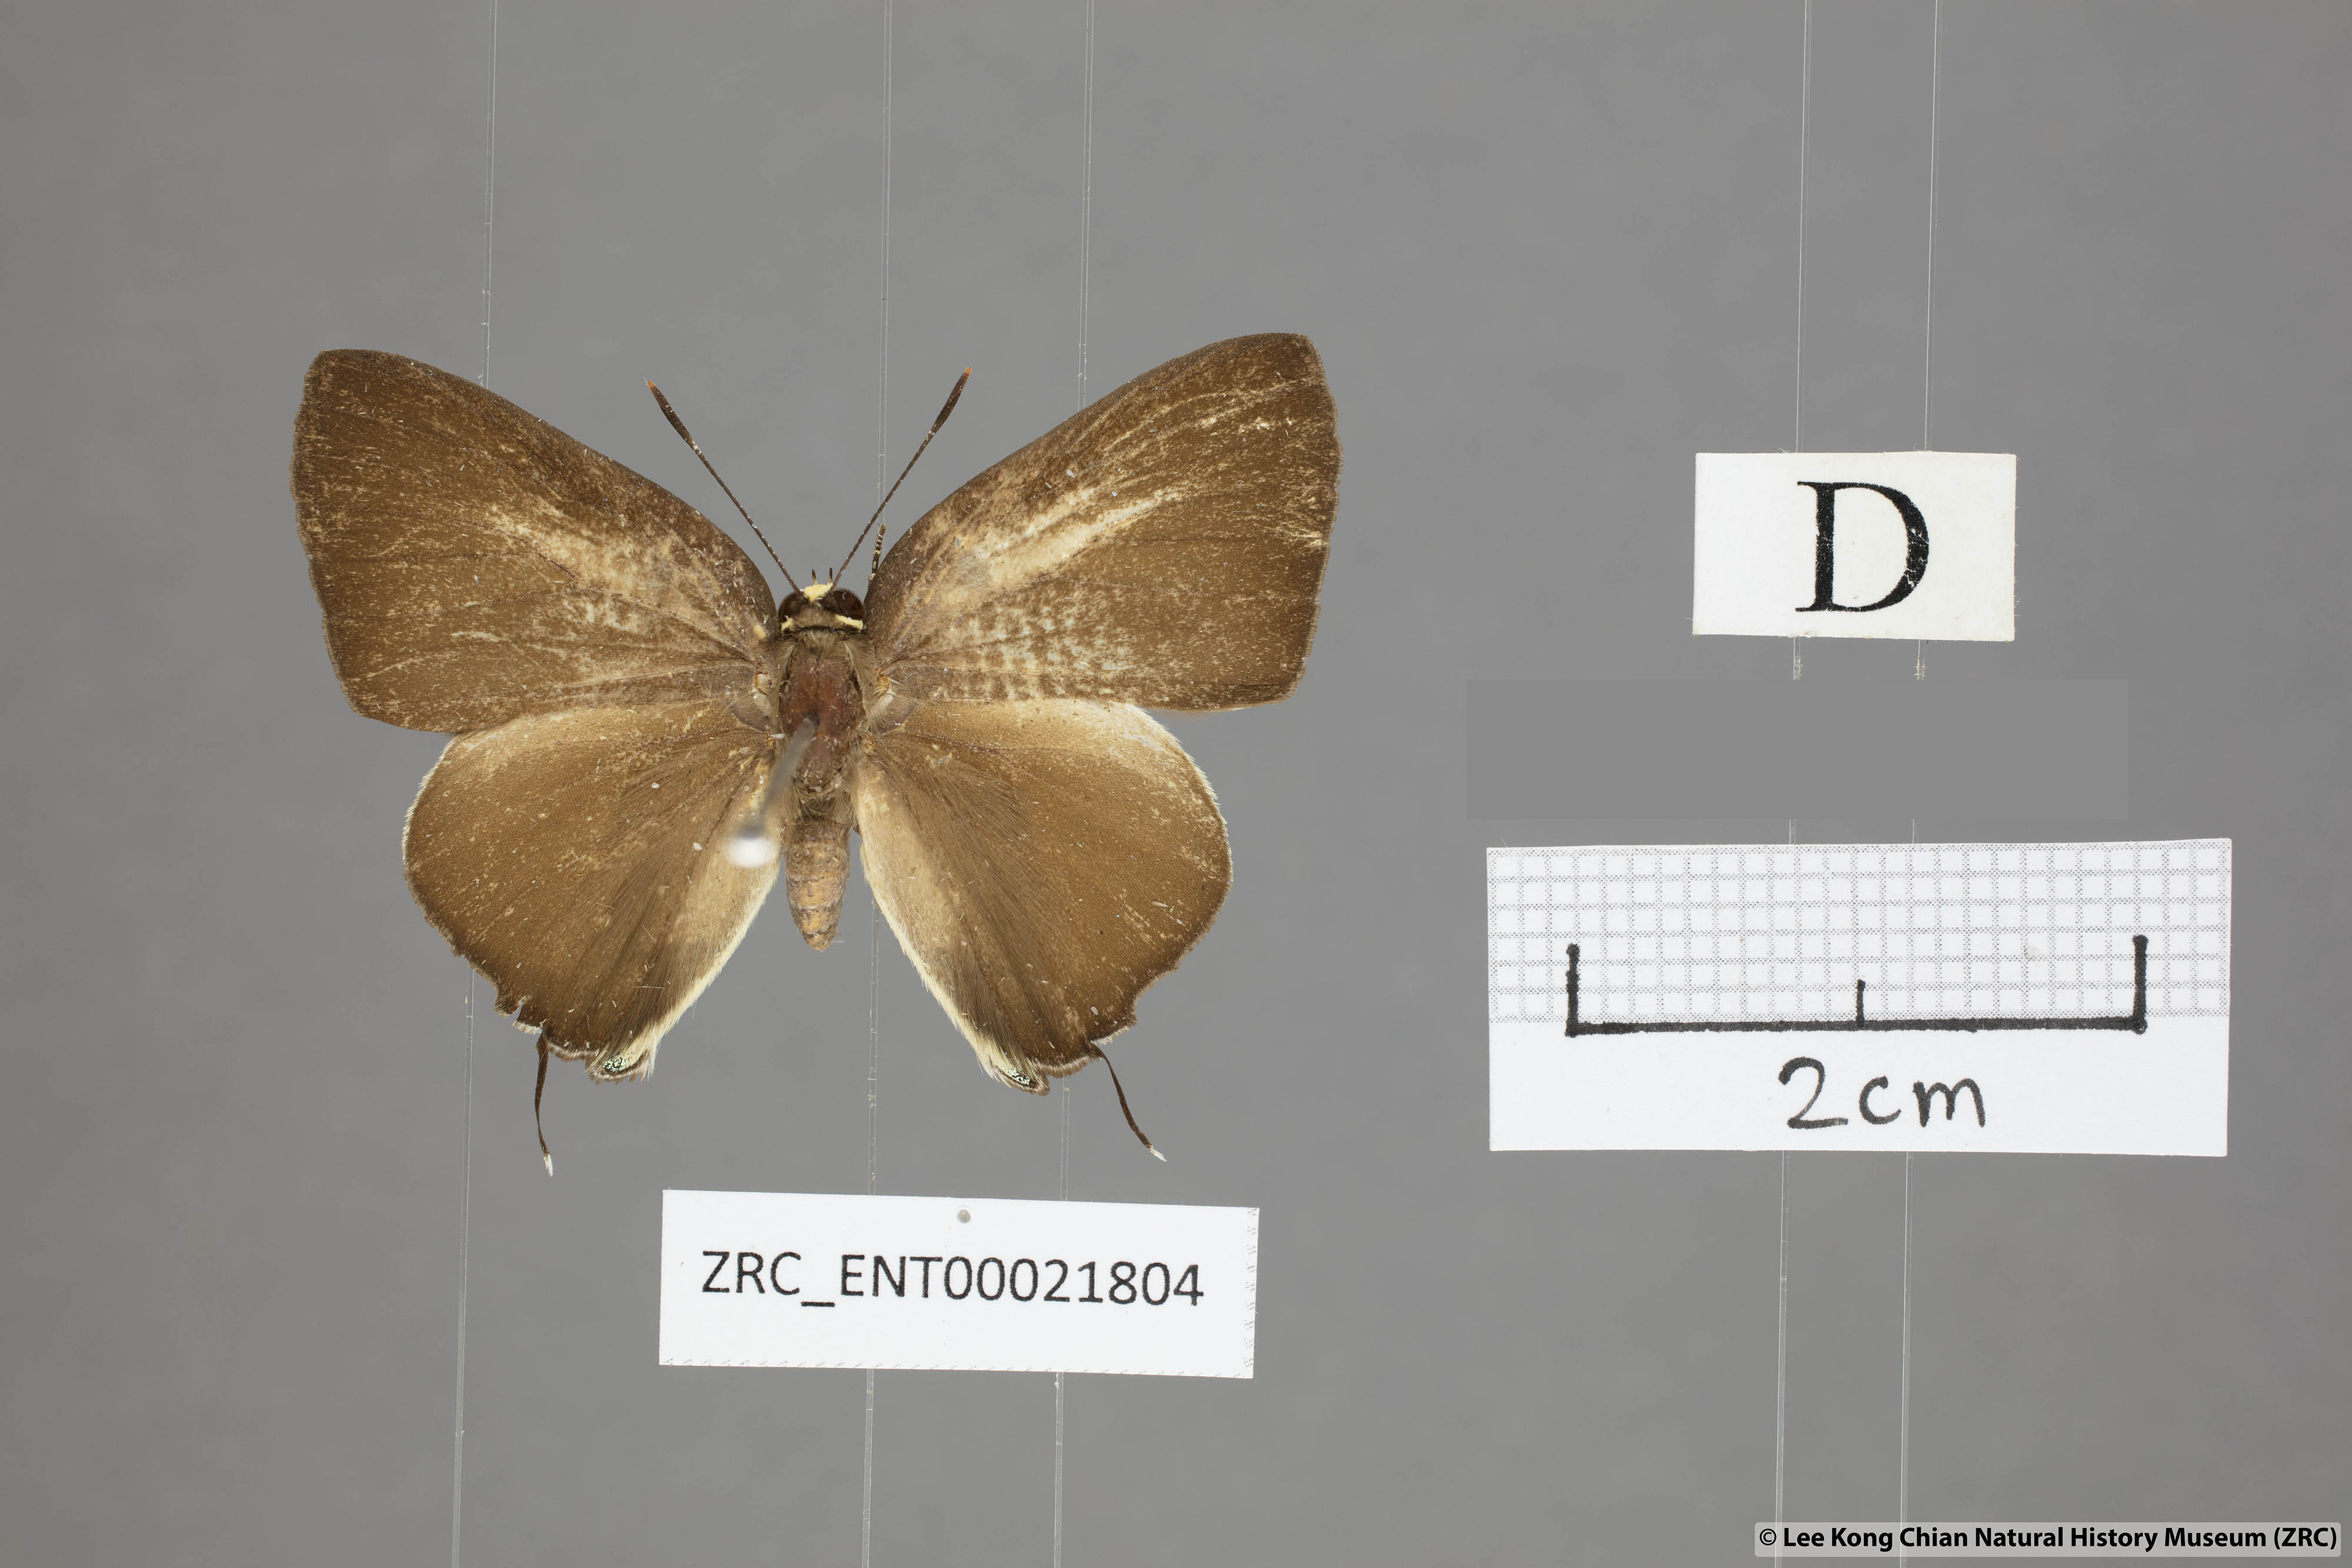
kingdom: Animalia
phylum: Arthropoda
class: Insecta
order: Lepidoptera
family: Lycaenidae
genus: Rapala
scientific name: Rapala domitia
